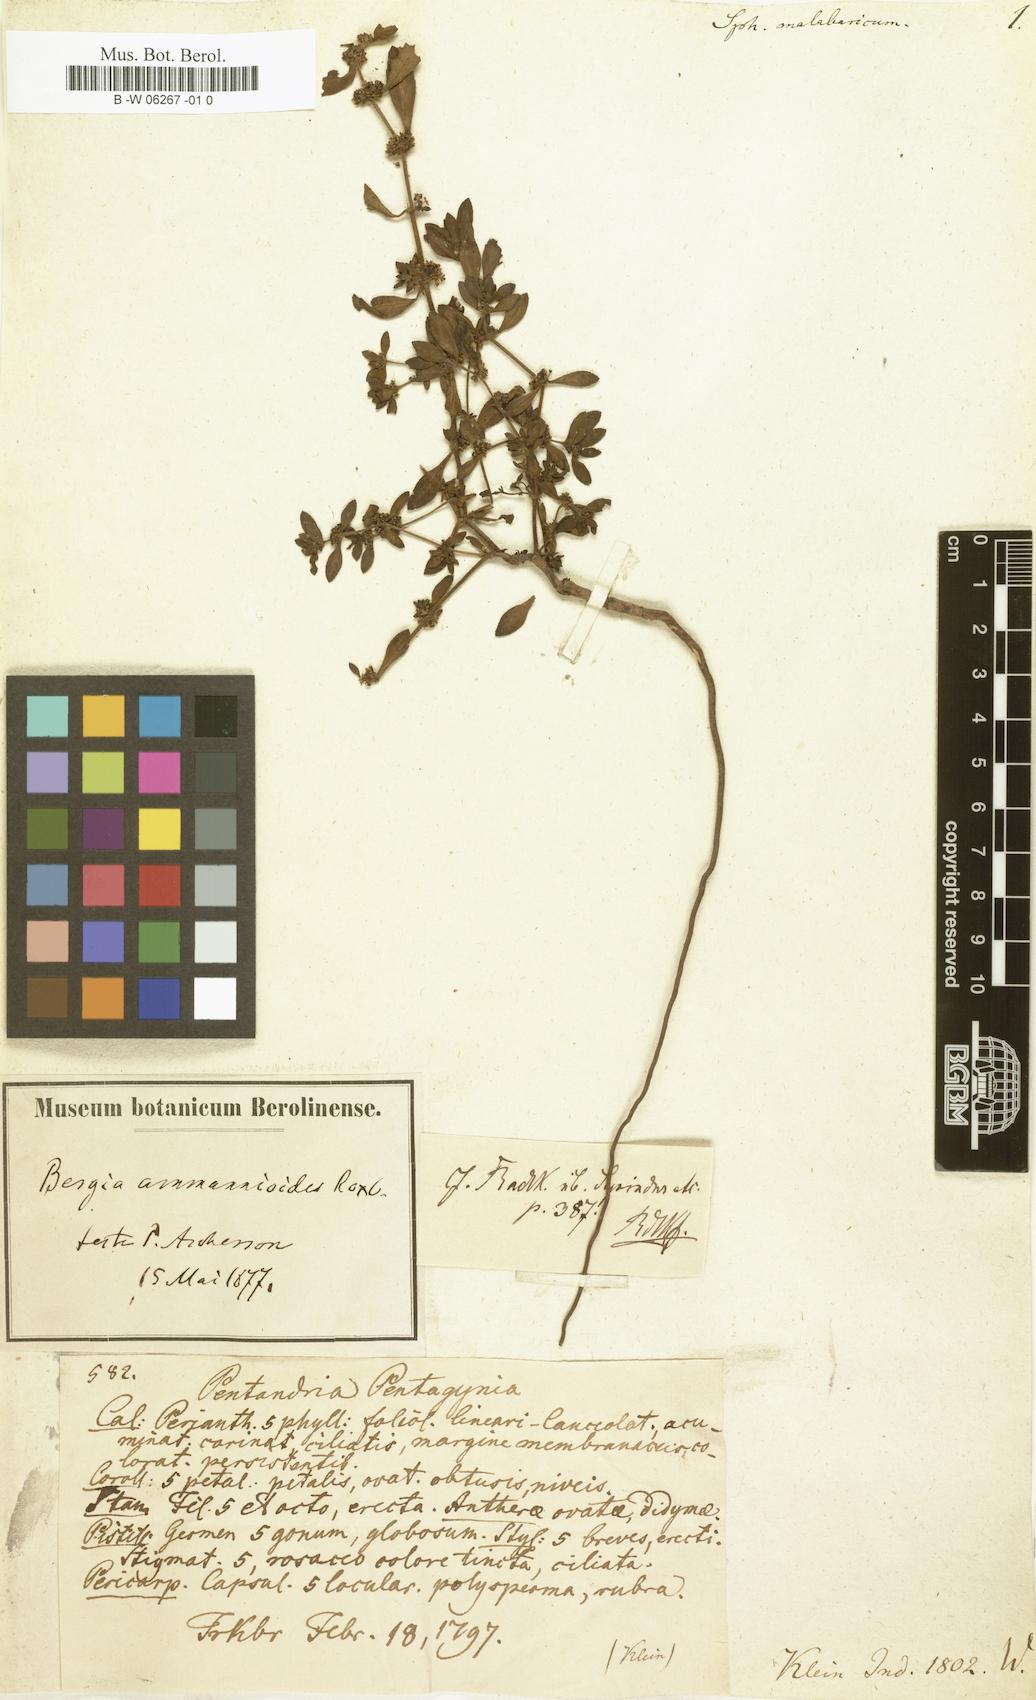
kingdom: Plantae
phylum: Tracheophyta
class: Magnoliopsida
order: Malpighiales
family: Elatinaceae
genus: Bergia
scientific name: Bergia ammannioides
